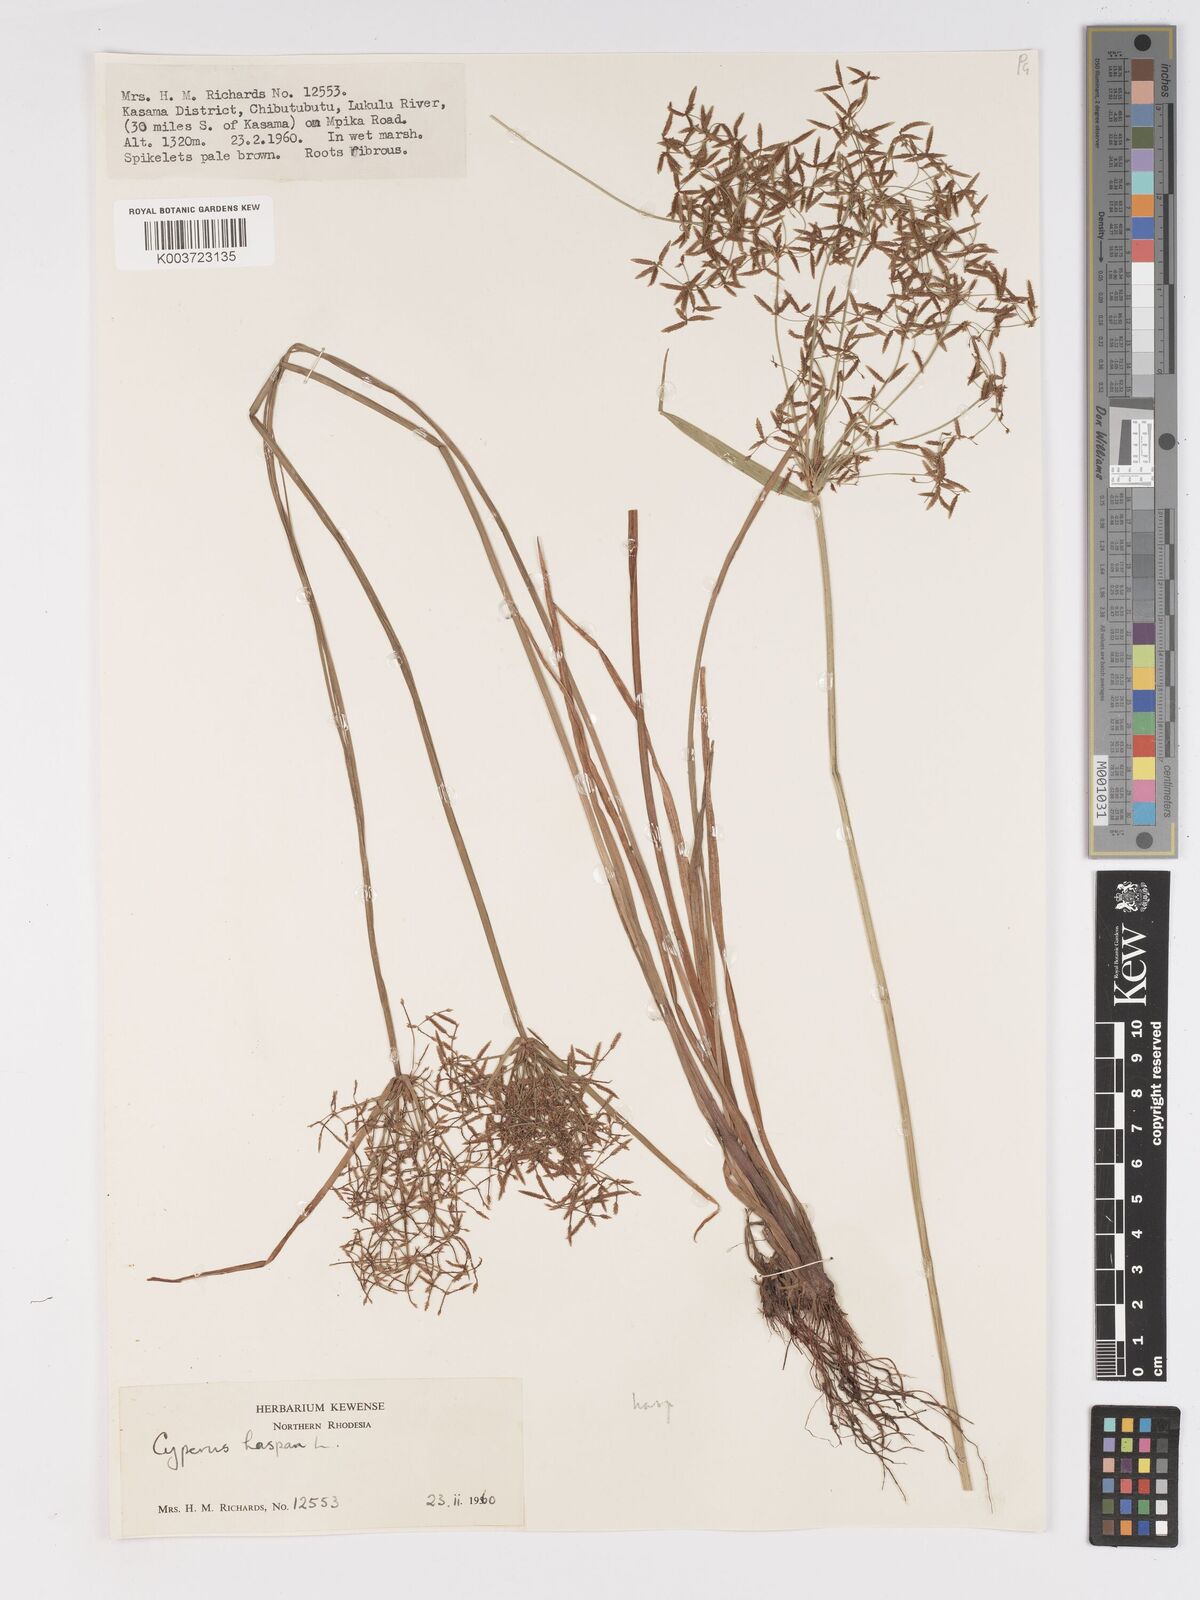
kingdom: Plantae
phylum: Tracheophyta
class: Liliopsida
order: Poales
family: Cyperaceae
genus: Cyperus
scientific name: Cyperus haspan
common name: Haspan flatsedge
